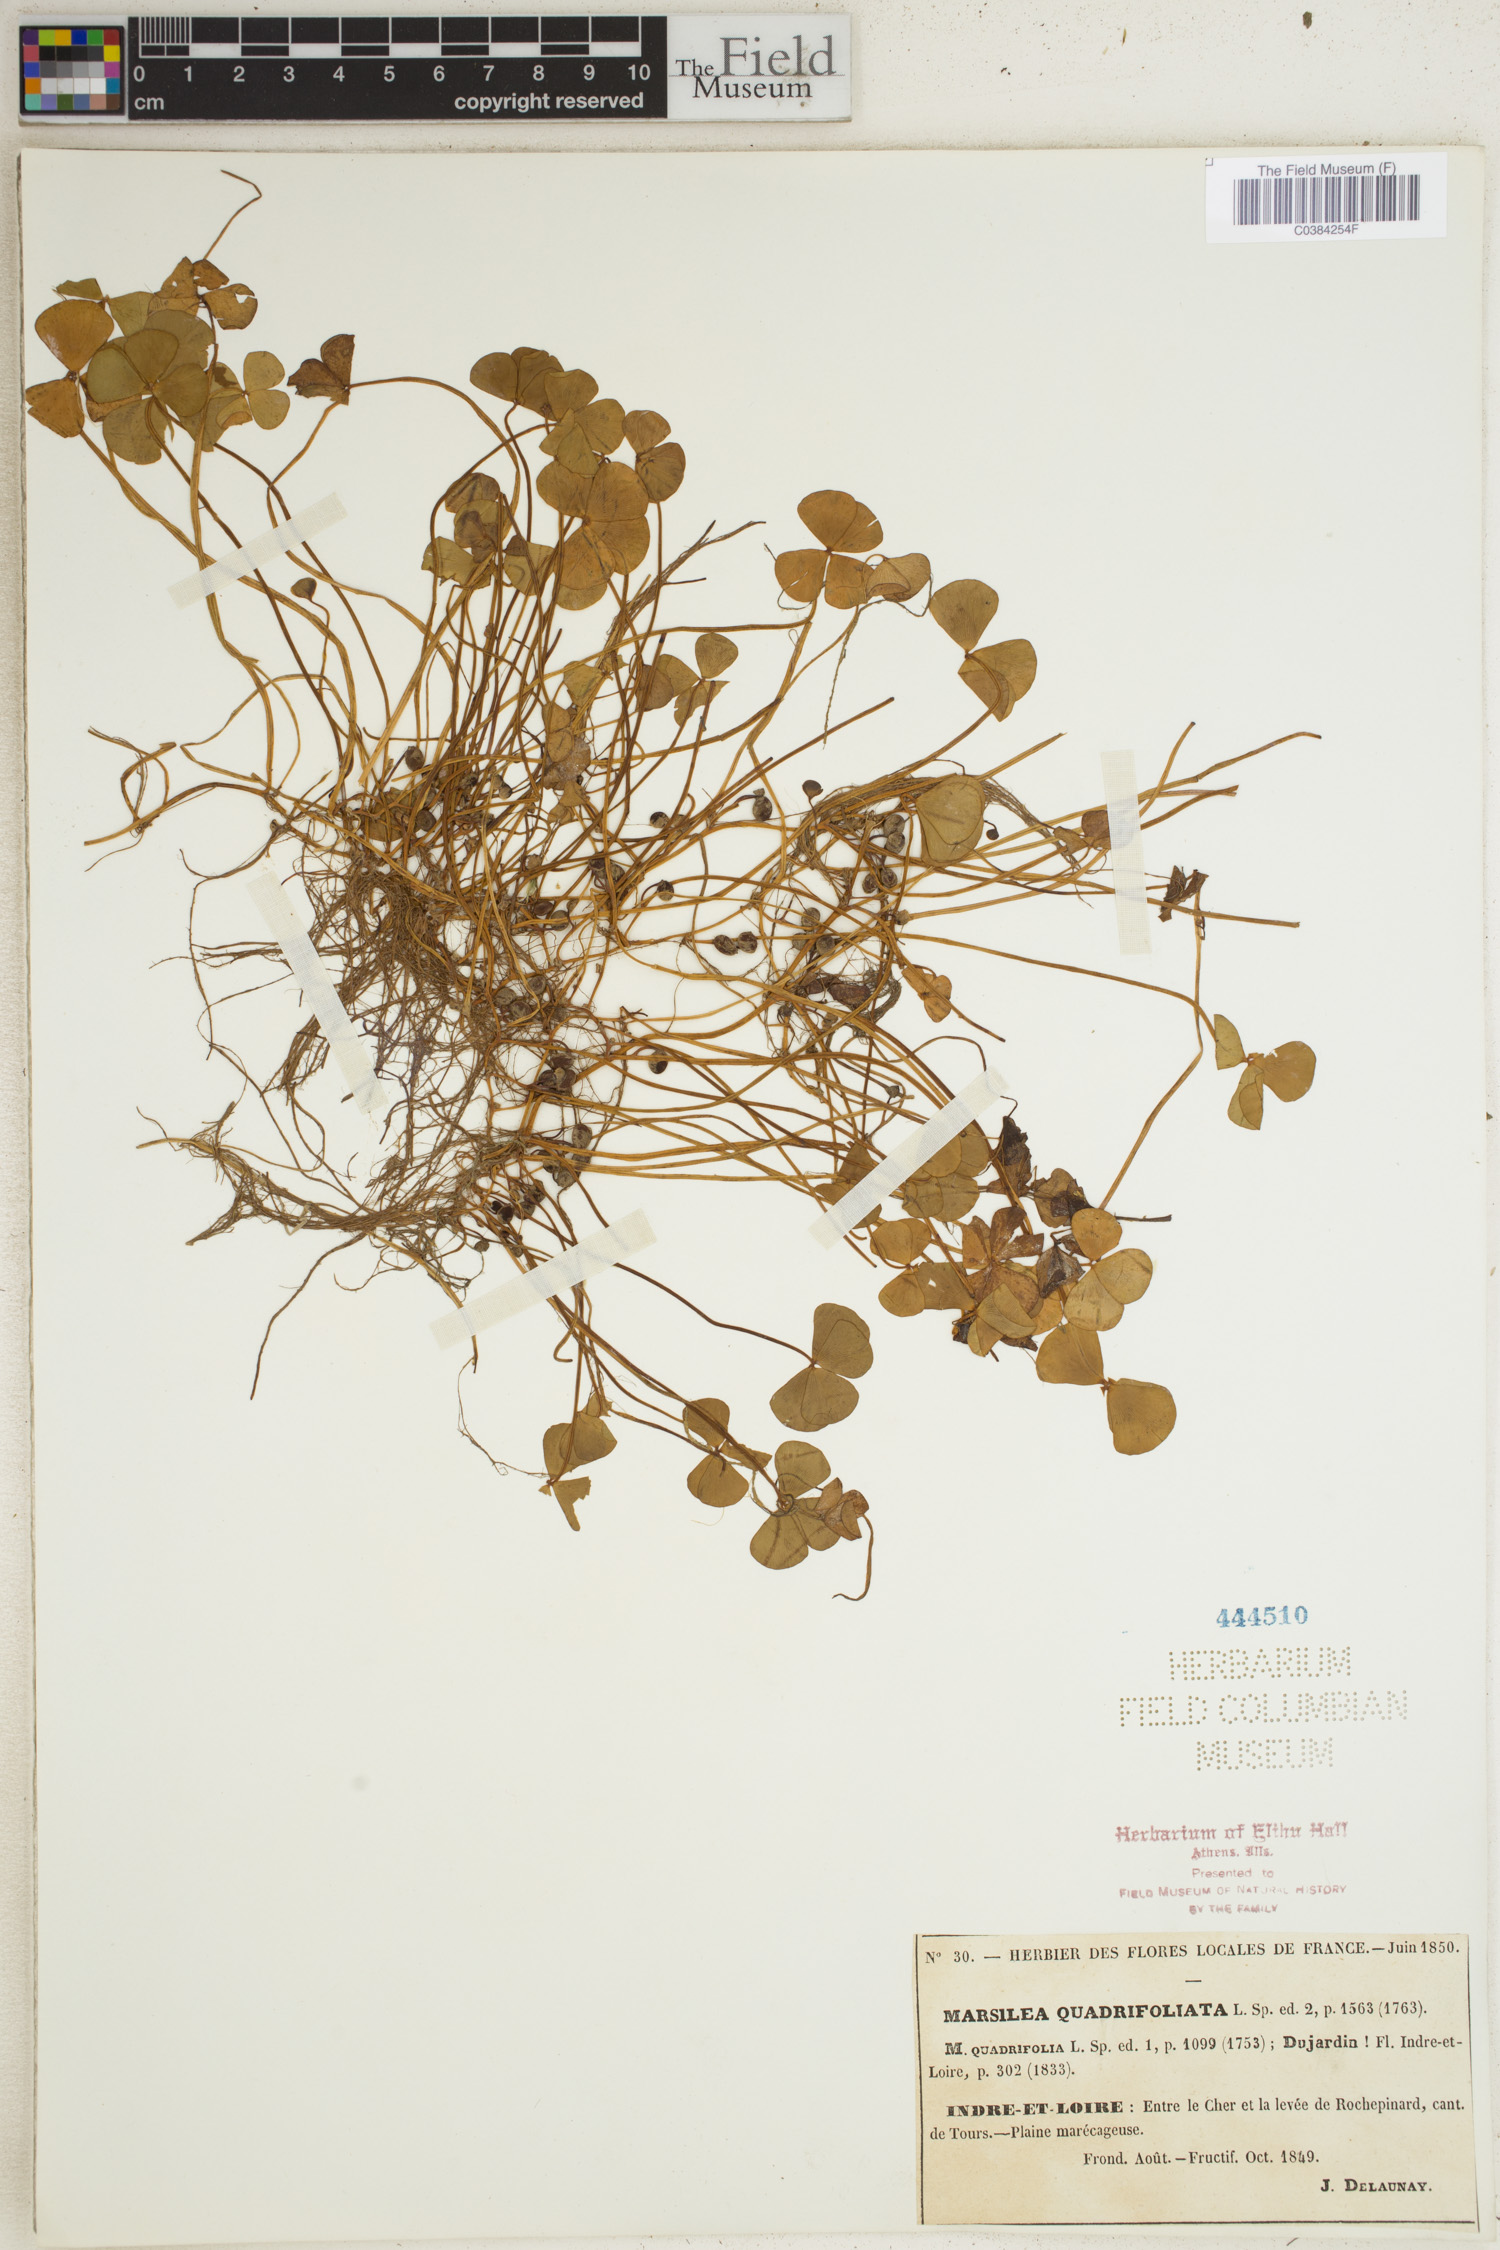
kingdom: Plantae
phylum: Tracheophyta
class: Polypodiopsida
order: Salviniales
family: Marsileaceae
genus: Marsilea
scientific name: Marsilea quadrifolia
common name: Water shamrock
